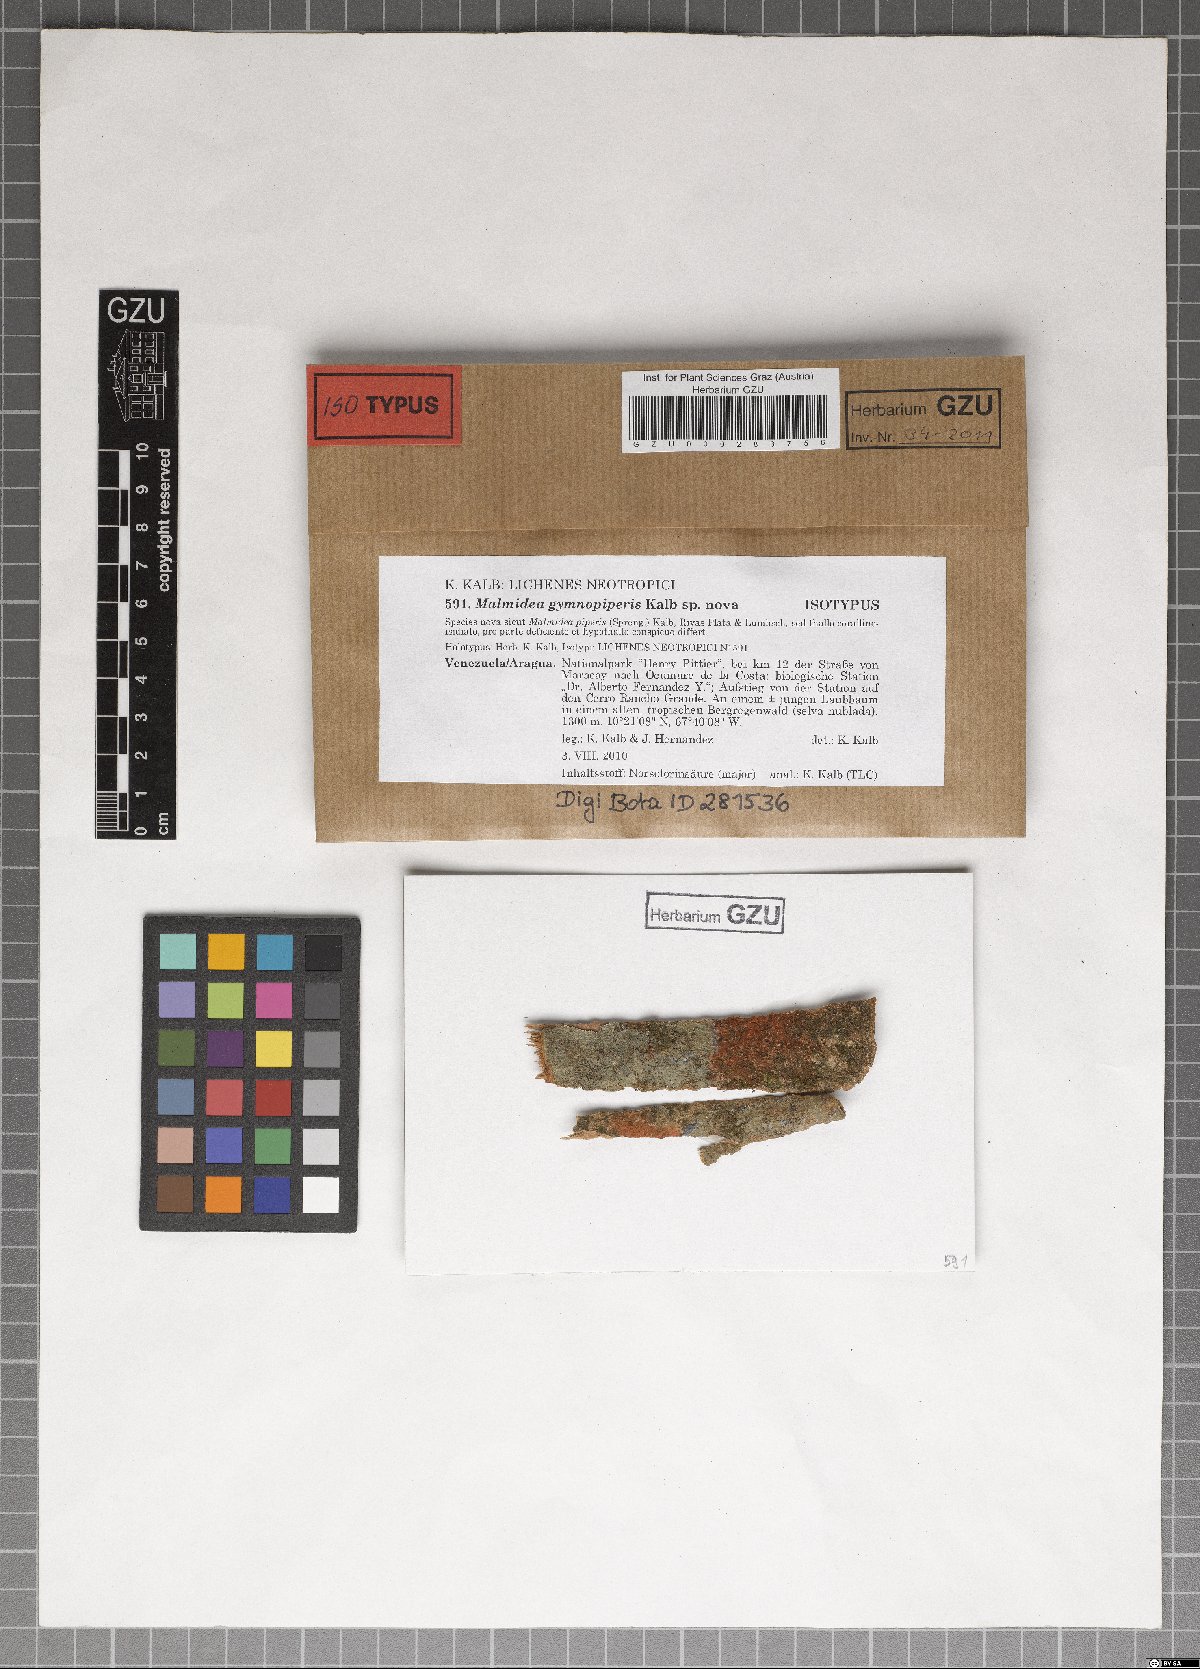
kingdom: Fungi
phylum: Ascomycota
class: Lecanoromycetes
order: Lecanorales
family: Malmideaceae
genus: Sprucidea
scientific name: Sprucidea gymnopiperis
